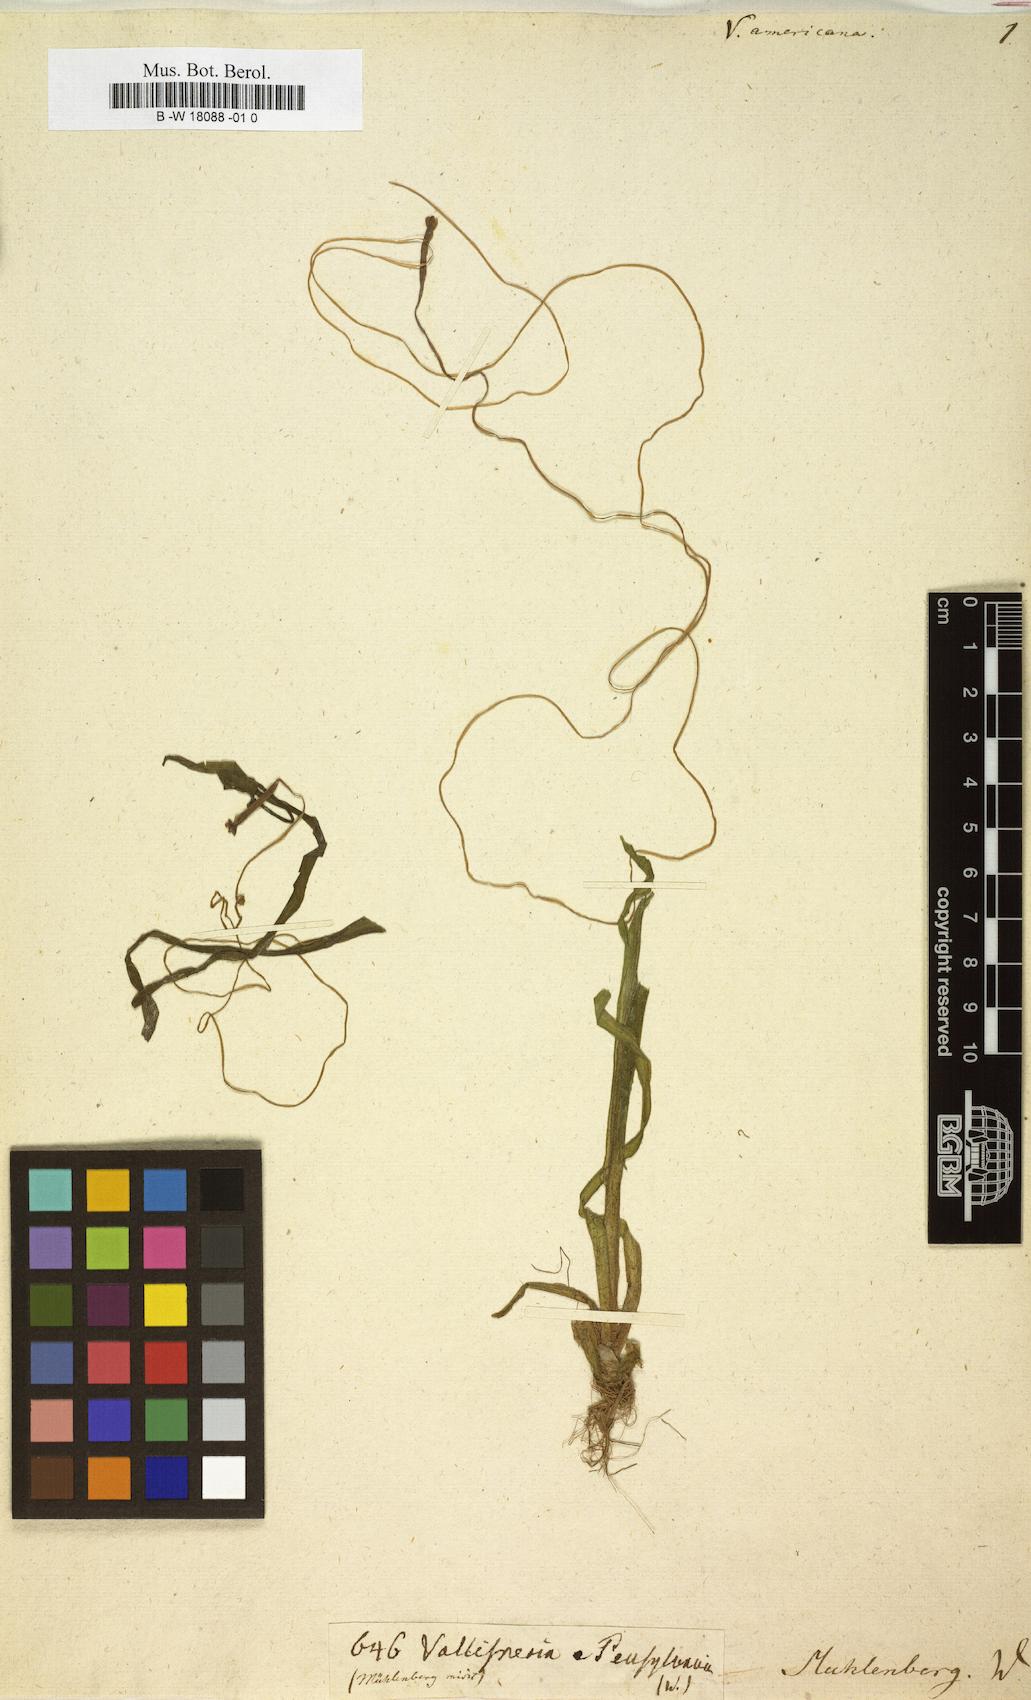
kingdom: Plantae
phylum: Tracheophyta
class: Liliopsida
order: Alismatales
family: Hydrocharitaceae
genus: Vallisneria
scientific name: Vallisneria americana
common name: American eelgrass
